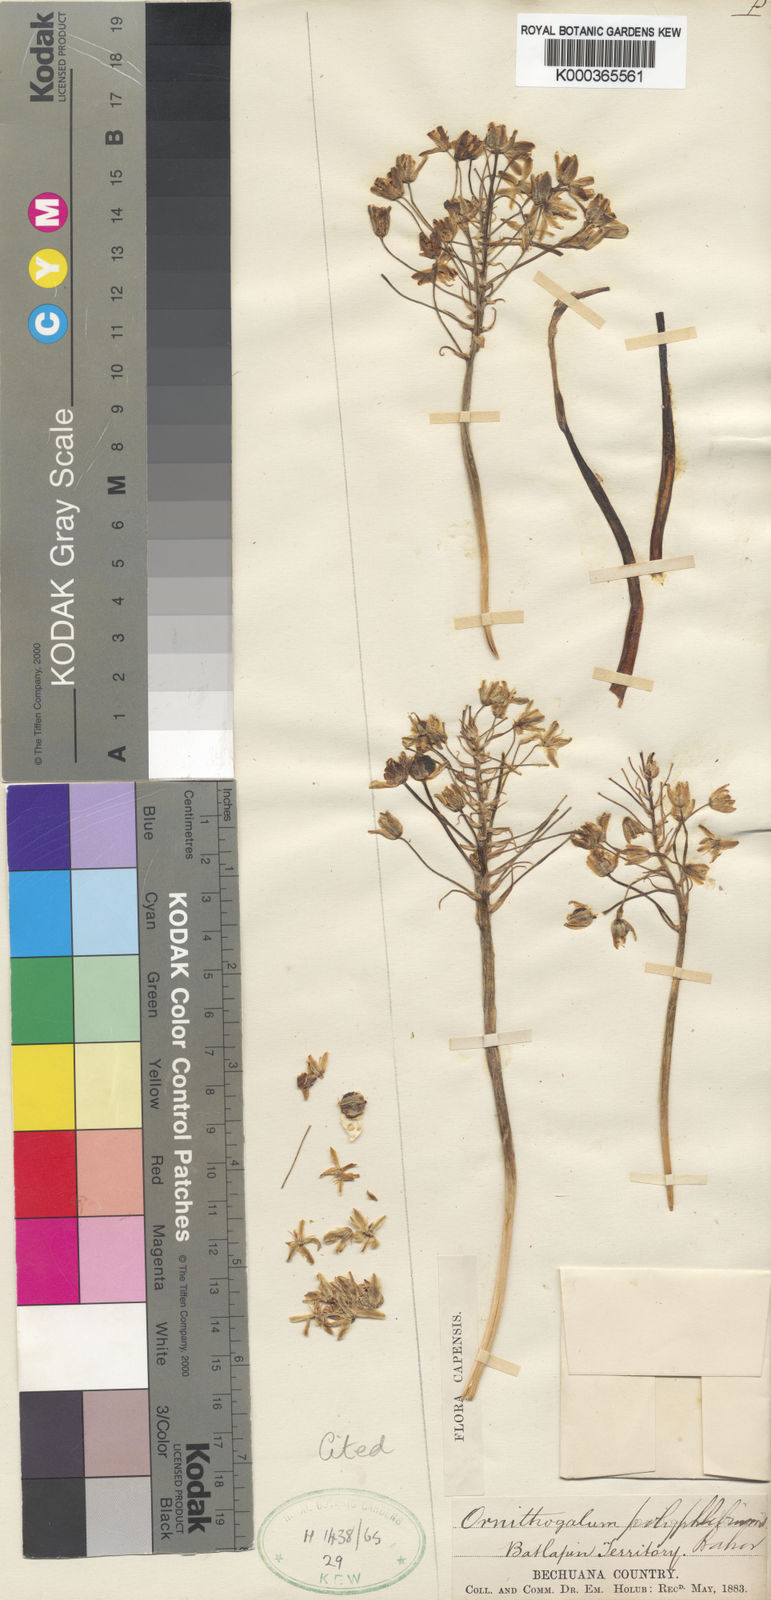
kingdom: Plantae
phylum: Tracheophyta
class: Liliopsida
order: Asparagales
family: Asparagaceae
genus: Ornithogalum
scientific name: Ornithogalum
